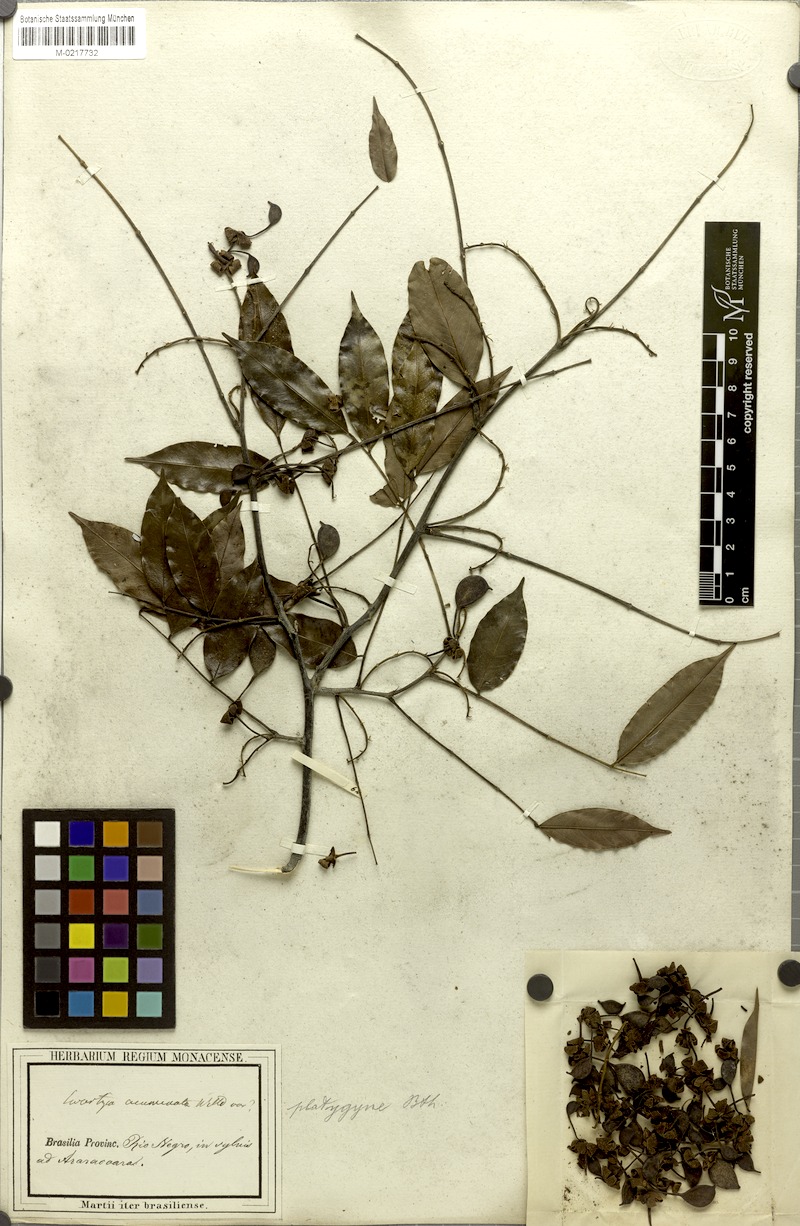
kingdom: Plantae
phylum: Tracheophyta
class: Magnoliopsida
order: Fabales
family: Fabaceae
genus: Swartzia
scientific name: Swartzia foliolosa
